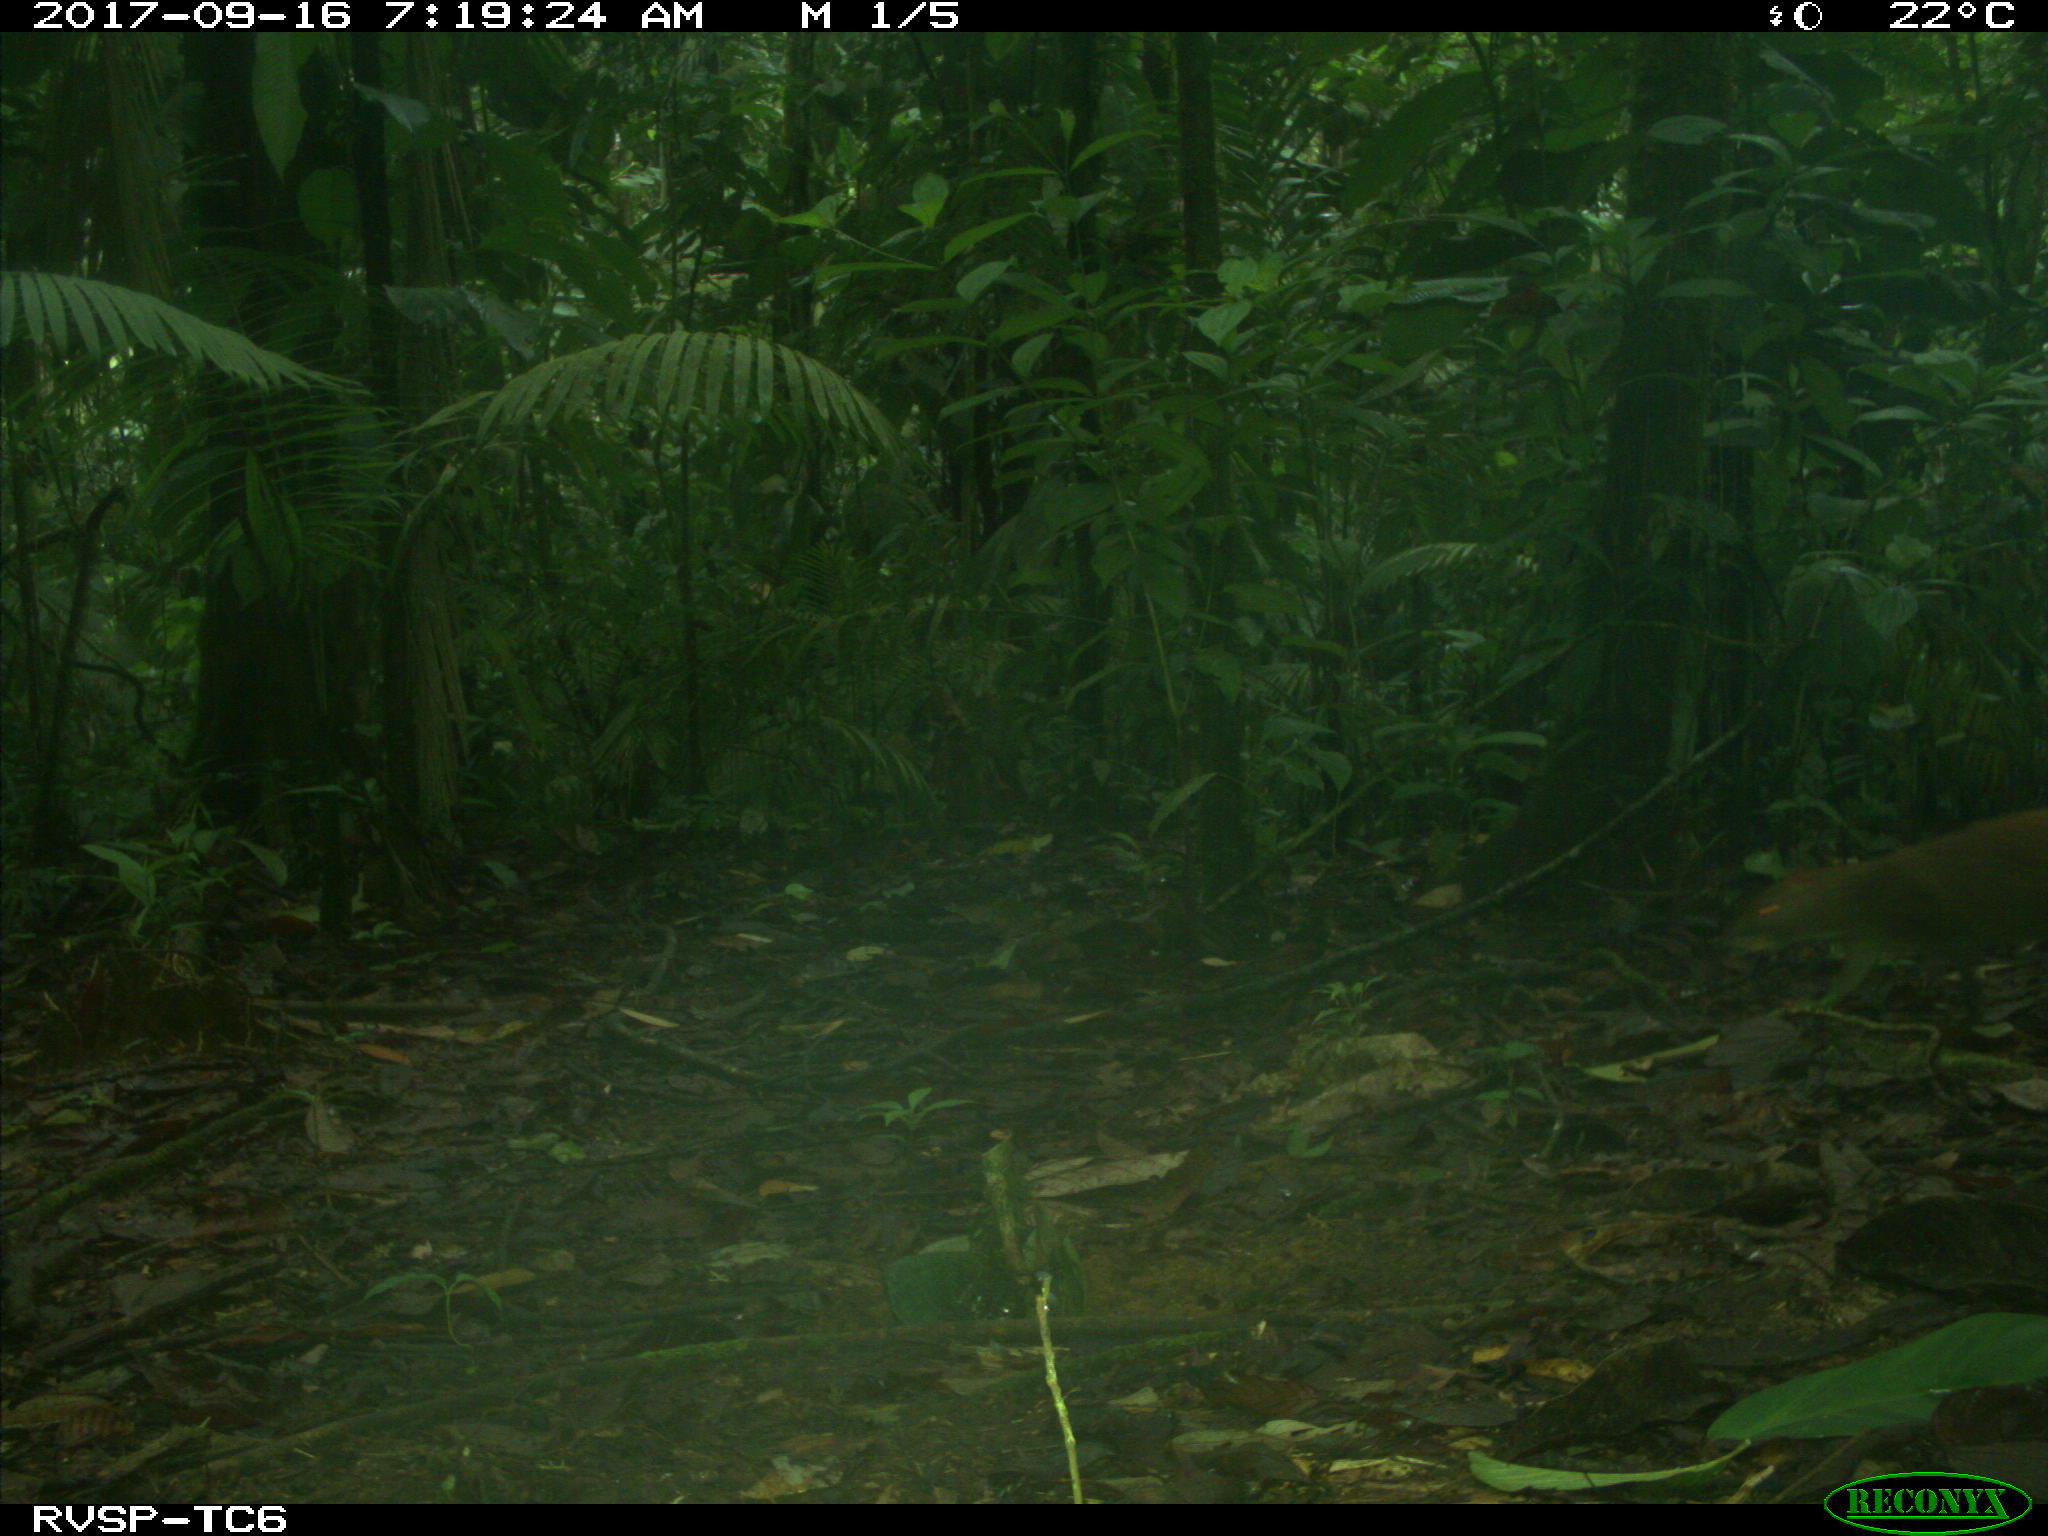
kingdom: Animalia
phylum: Chordata
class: Mammalia
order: Rodentia
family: Dasyproctidae
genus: Dasyprocta
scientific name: Dasyprocta punctata
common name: Central american agouti
